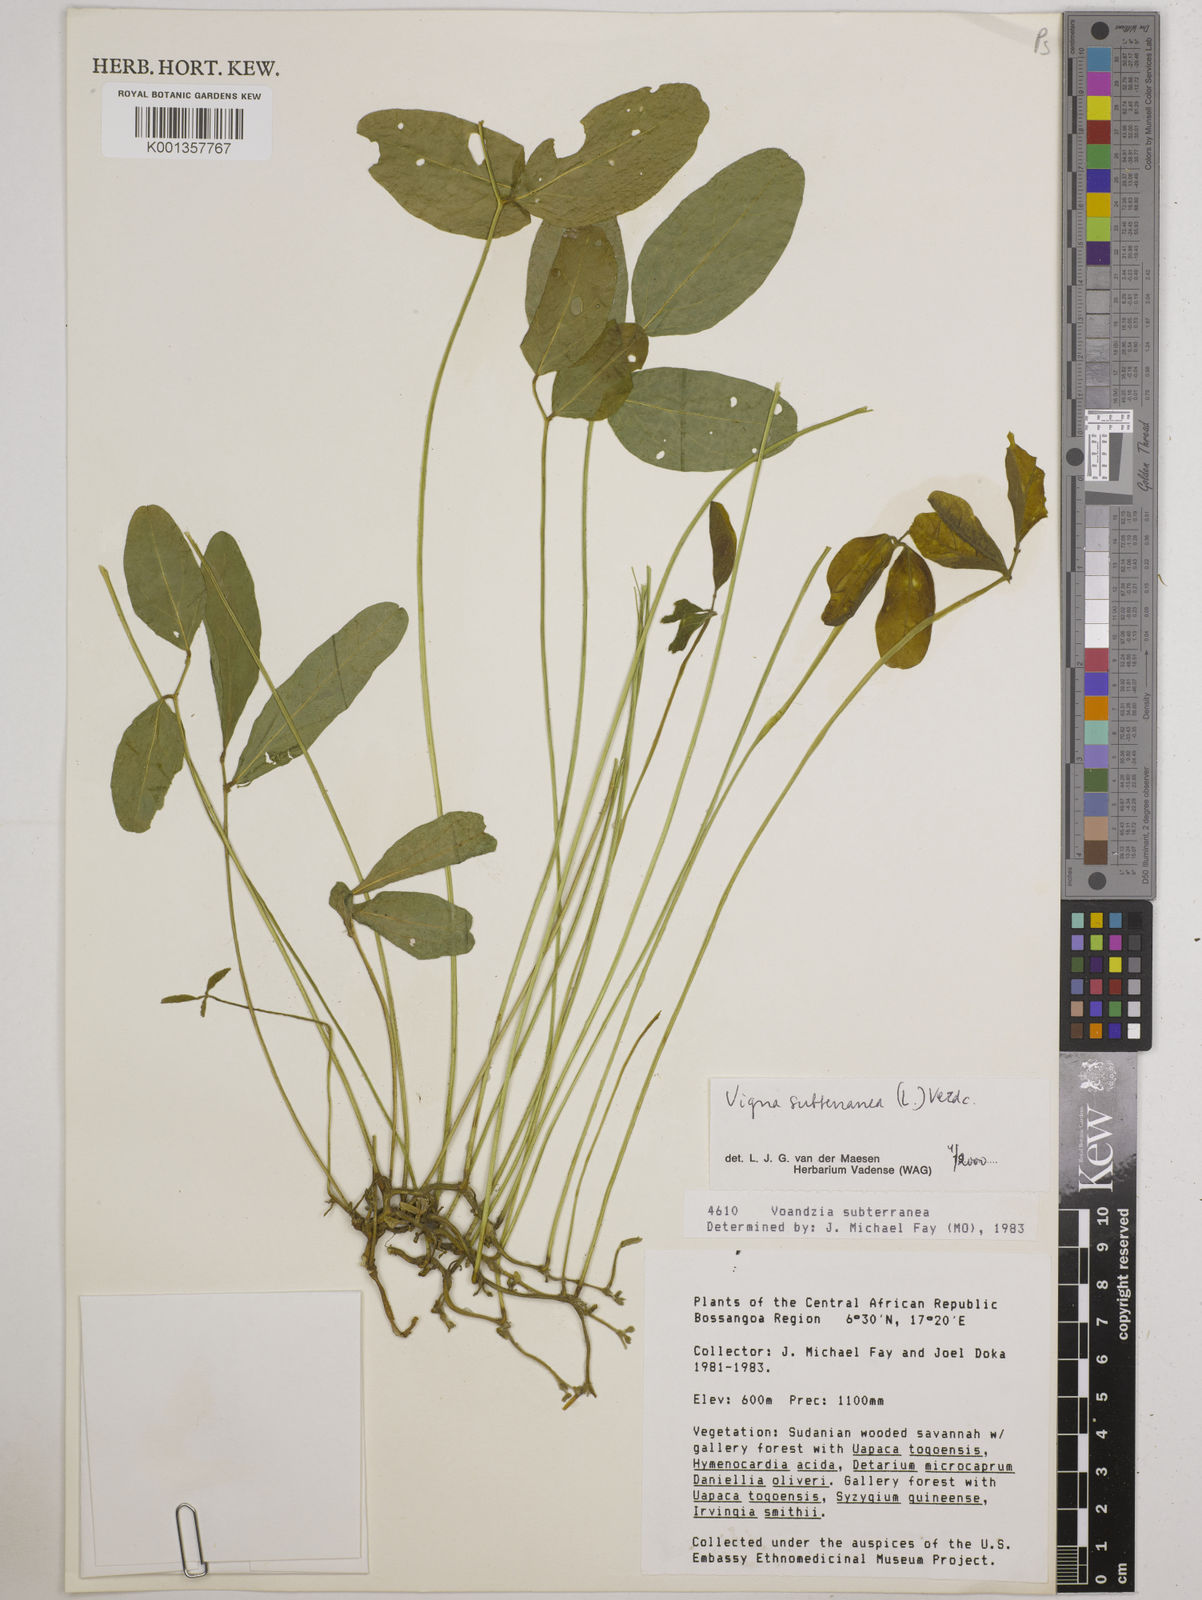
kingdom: Plantae
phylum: Tracheophyta
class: Magnoliopsida
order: Fabales
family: Fabaceae
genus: Vigna
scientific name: Vigna subterranea
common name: Bambara groundnut
